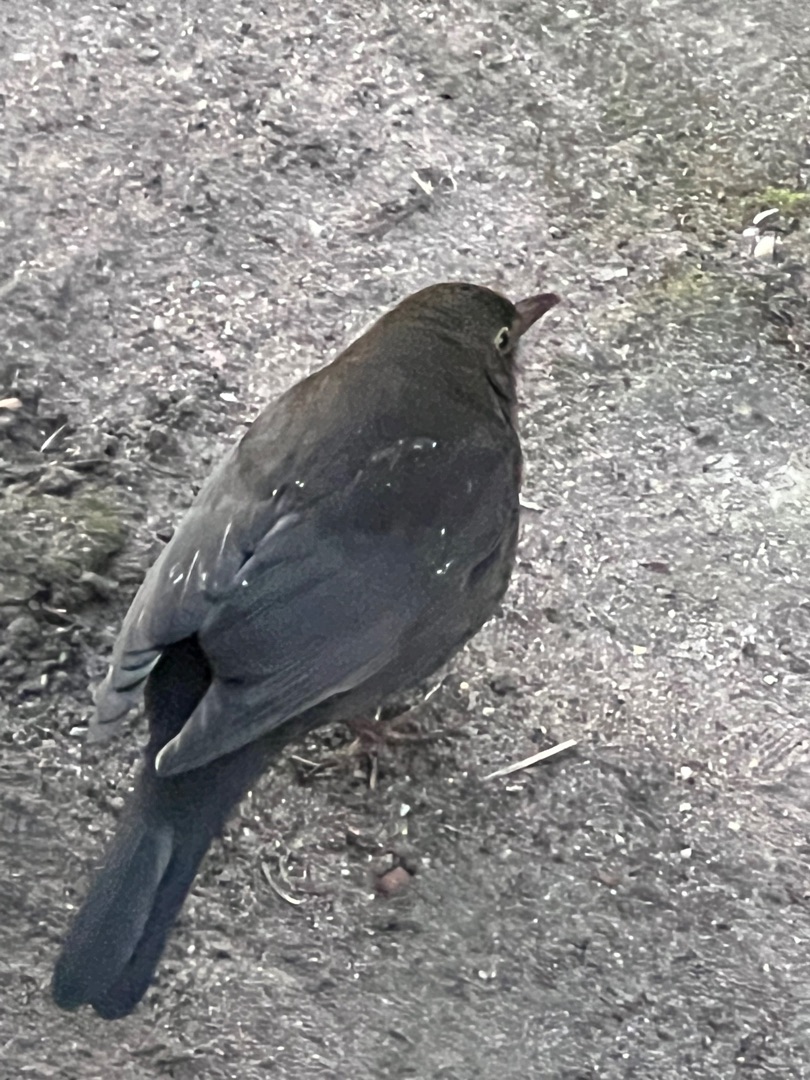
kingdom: Animalia
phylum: Chordata
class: Aves
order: Passeriformes
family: Turdidae
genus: Turdus
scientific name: Turdus merula
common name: Solsort
